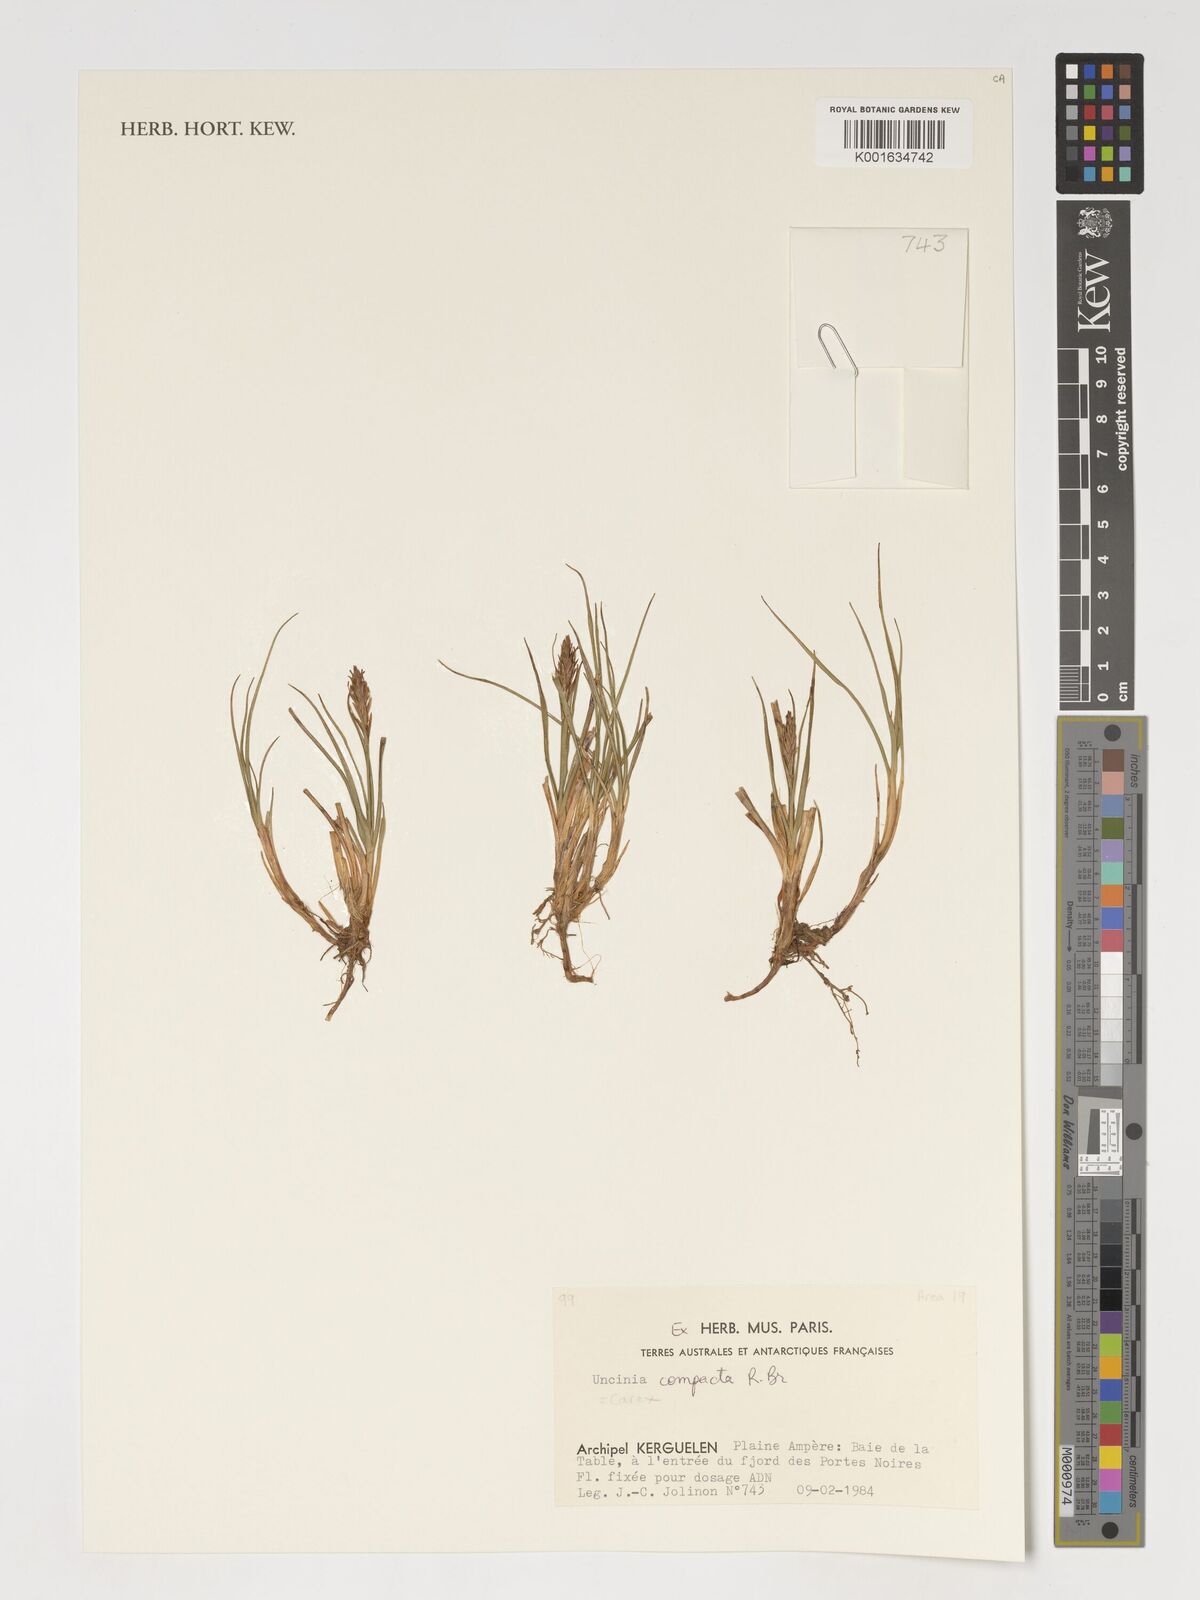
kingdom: Plantae
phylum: Tracheophyta
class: Liliopsida
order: Poales
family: Cyperaceae
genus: Carex
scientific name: Carex austrocompacta
